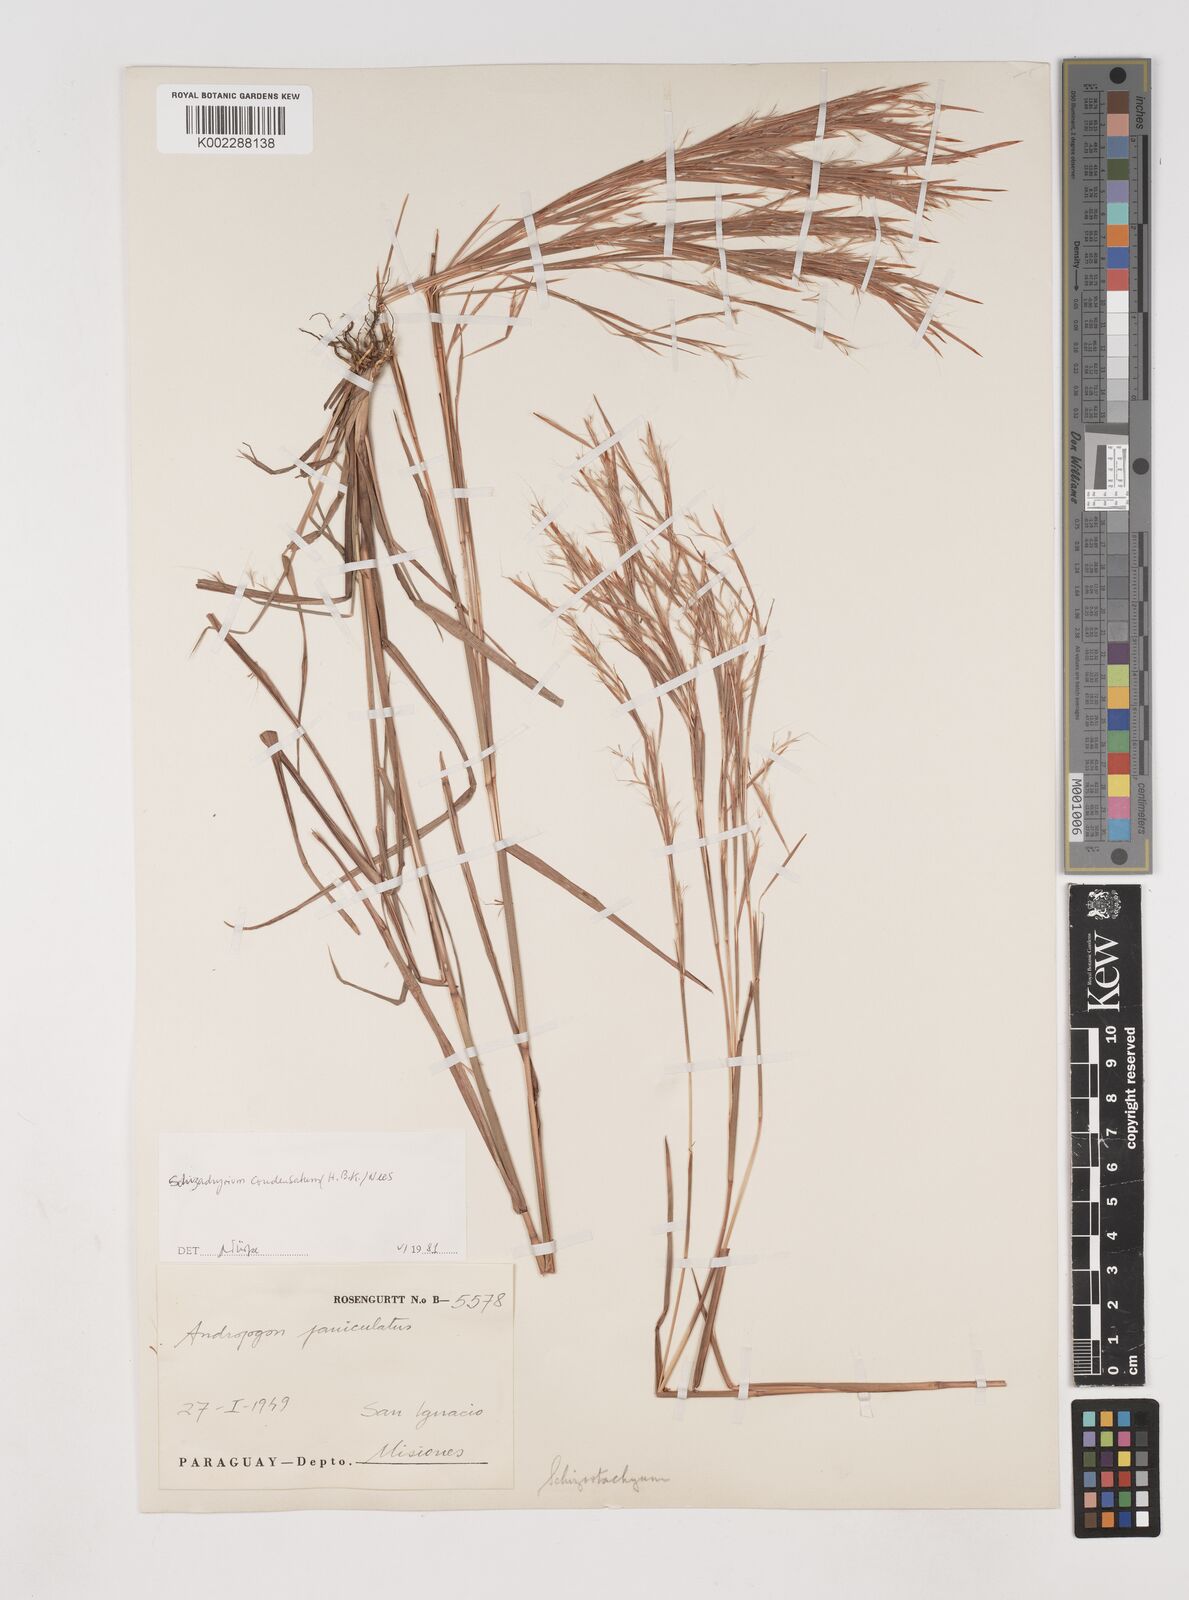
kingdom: Plantae
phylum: Tracheophyta
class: Liliopsida
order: Poales
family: Poaceae
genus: Schizachyrium
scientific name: Schizachyrium microstachyum
